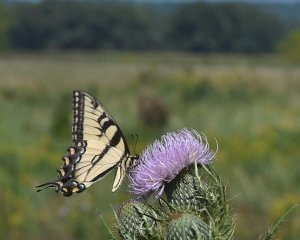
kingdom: Animalia
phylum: Arthropoda
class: Insecta
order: Lepidoptera
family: Papilionidae
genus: Pterourus
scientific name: Pterourus glaucus
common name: Eastern Tiger Swallowtail
